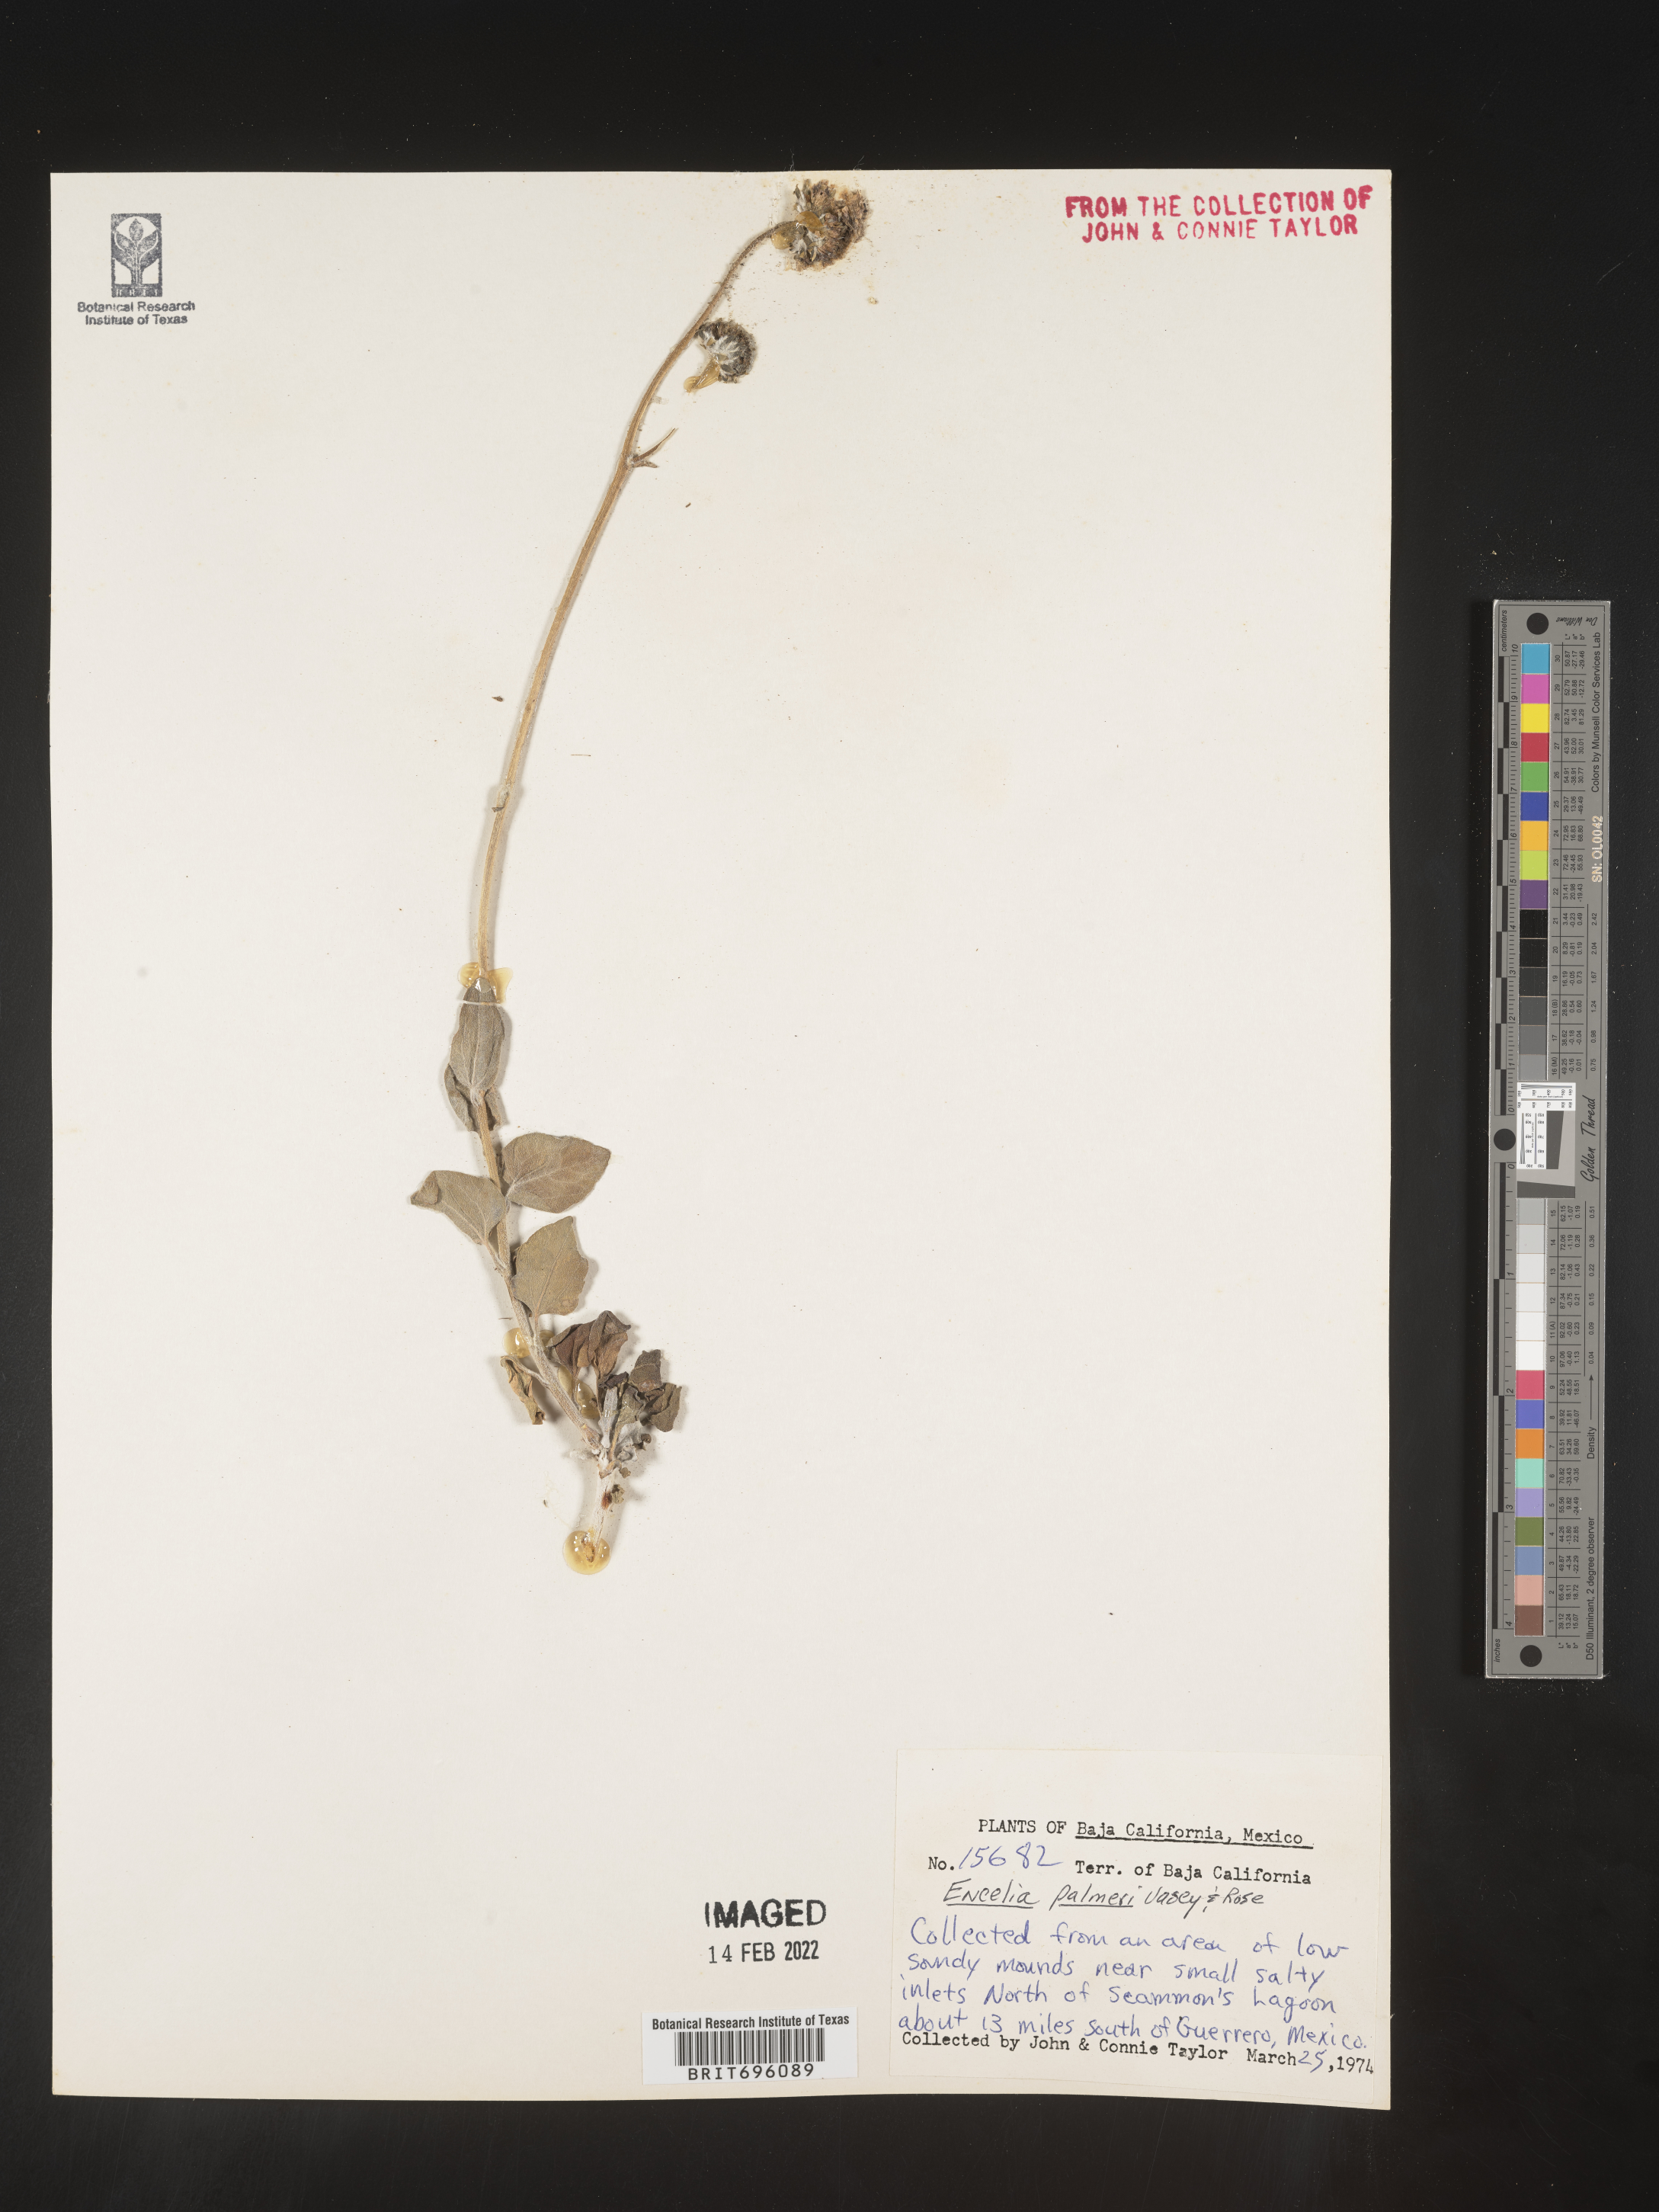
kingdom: Plantae
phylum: Tracheophyta
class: Magnoliopsida
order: Asterales
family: Asteraceae
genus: Encelia
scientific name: Encelia
